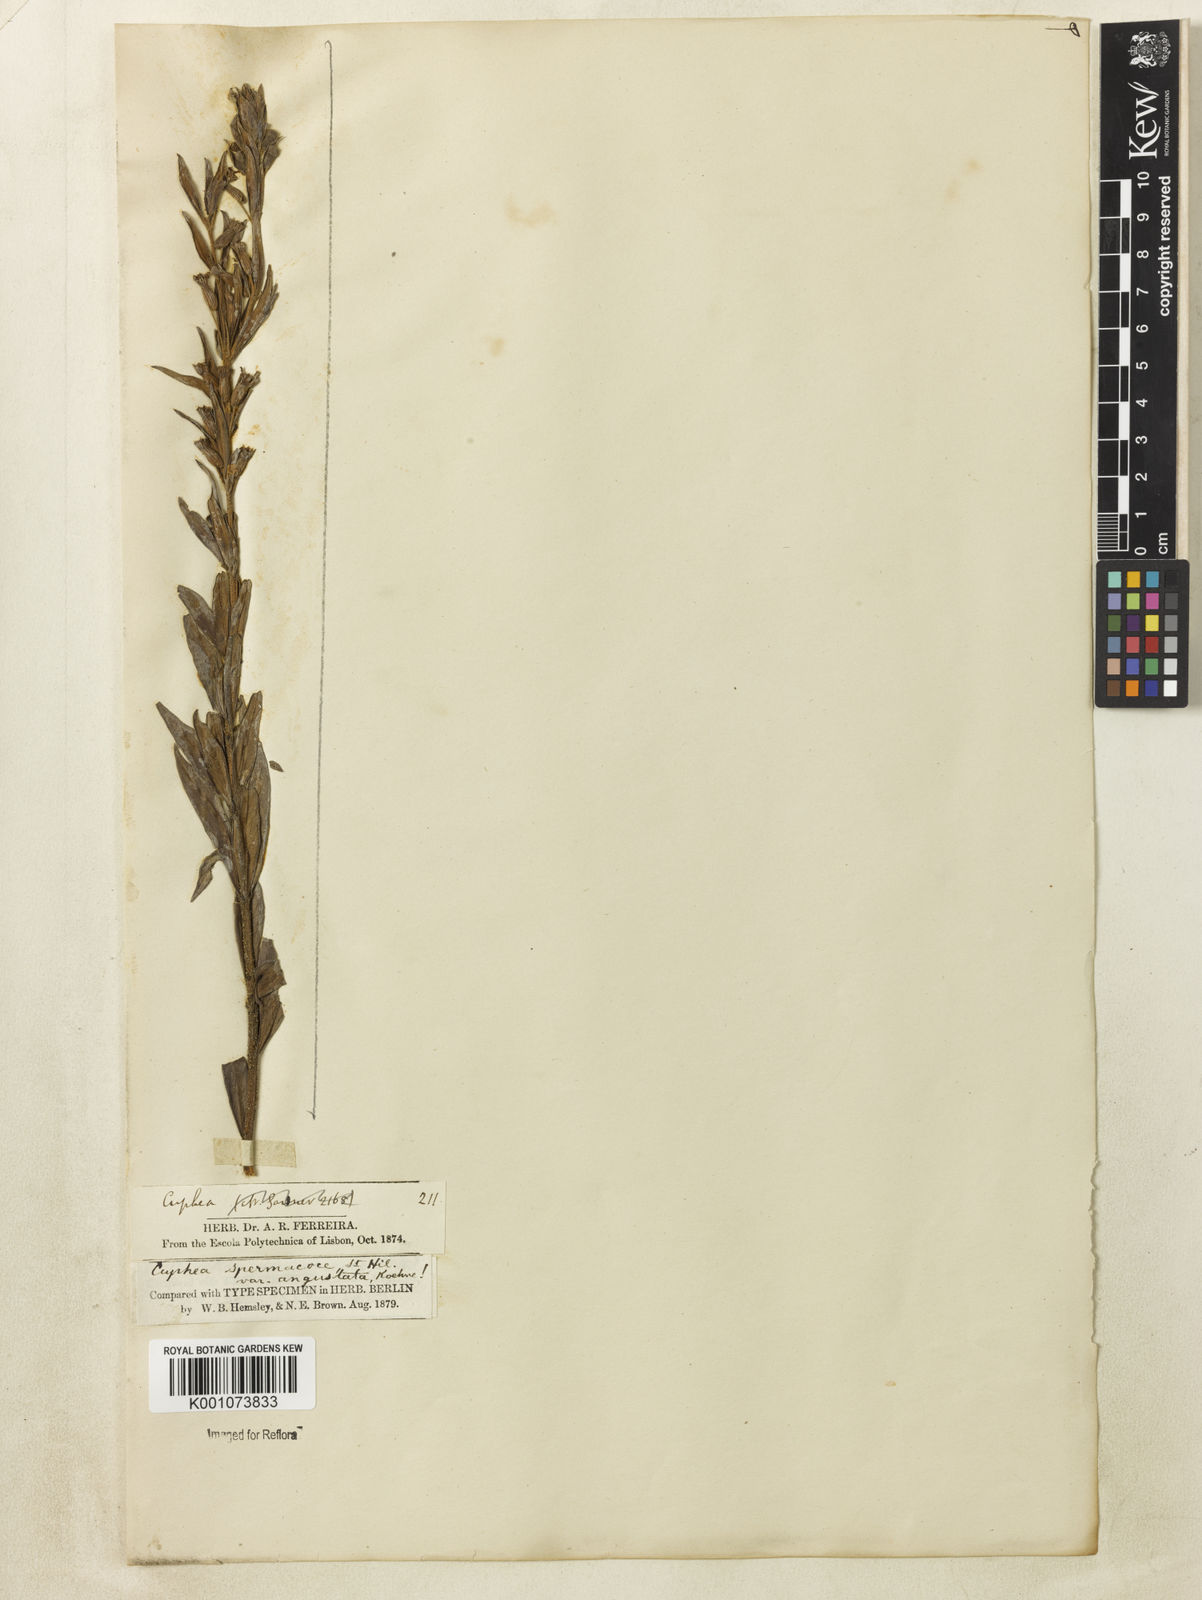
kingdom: Plantae
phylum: Tracheophyta
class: Magnoliopsida
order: Myrtales
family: Lythraceae
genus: Cuphea
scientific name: Cuphea spermacoce
